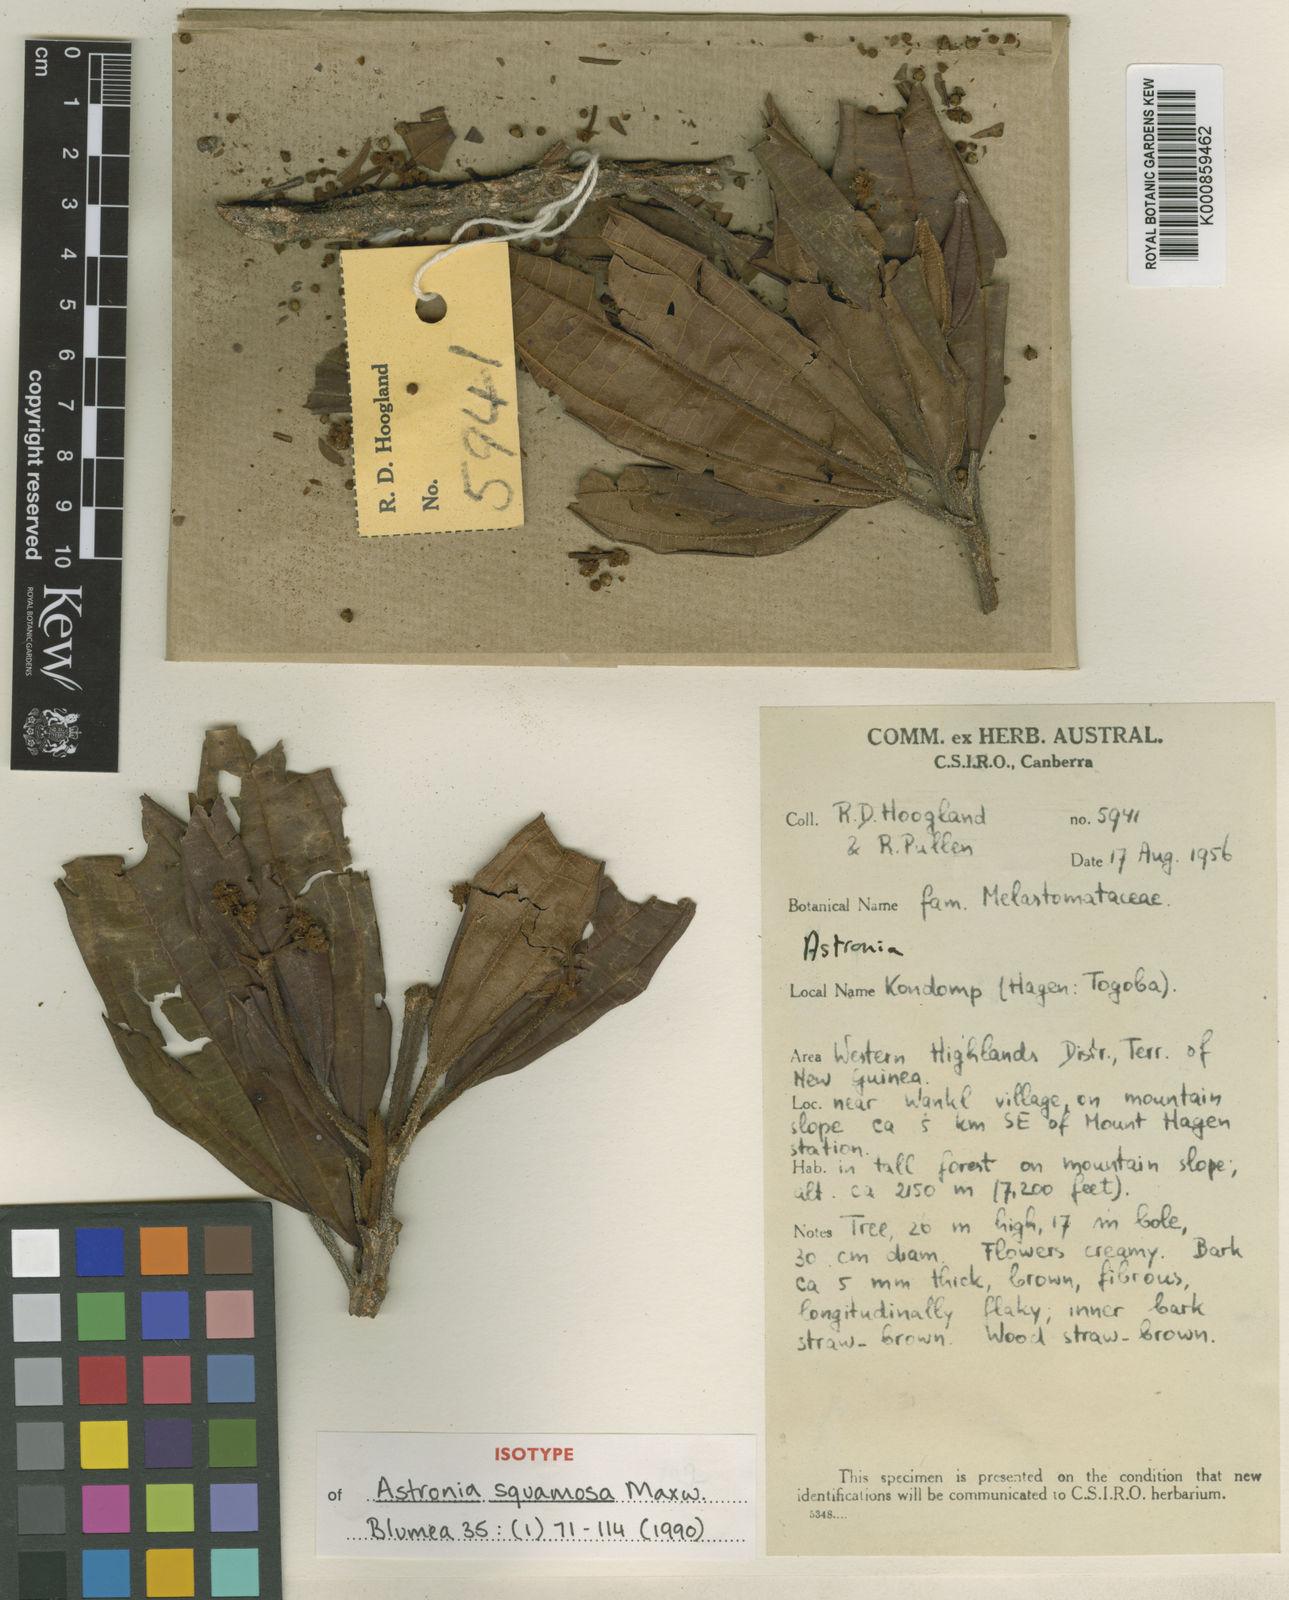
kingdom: Plantae
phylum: Tracheophyta
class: Magnoliopsida
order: Myrtales
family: Melastomataceae
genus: Astronia
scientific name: Astronia squamosa
